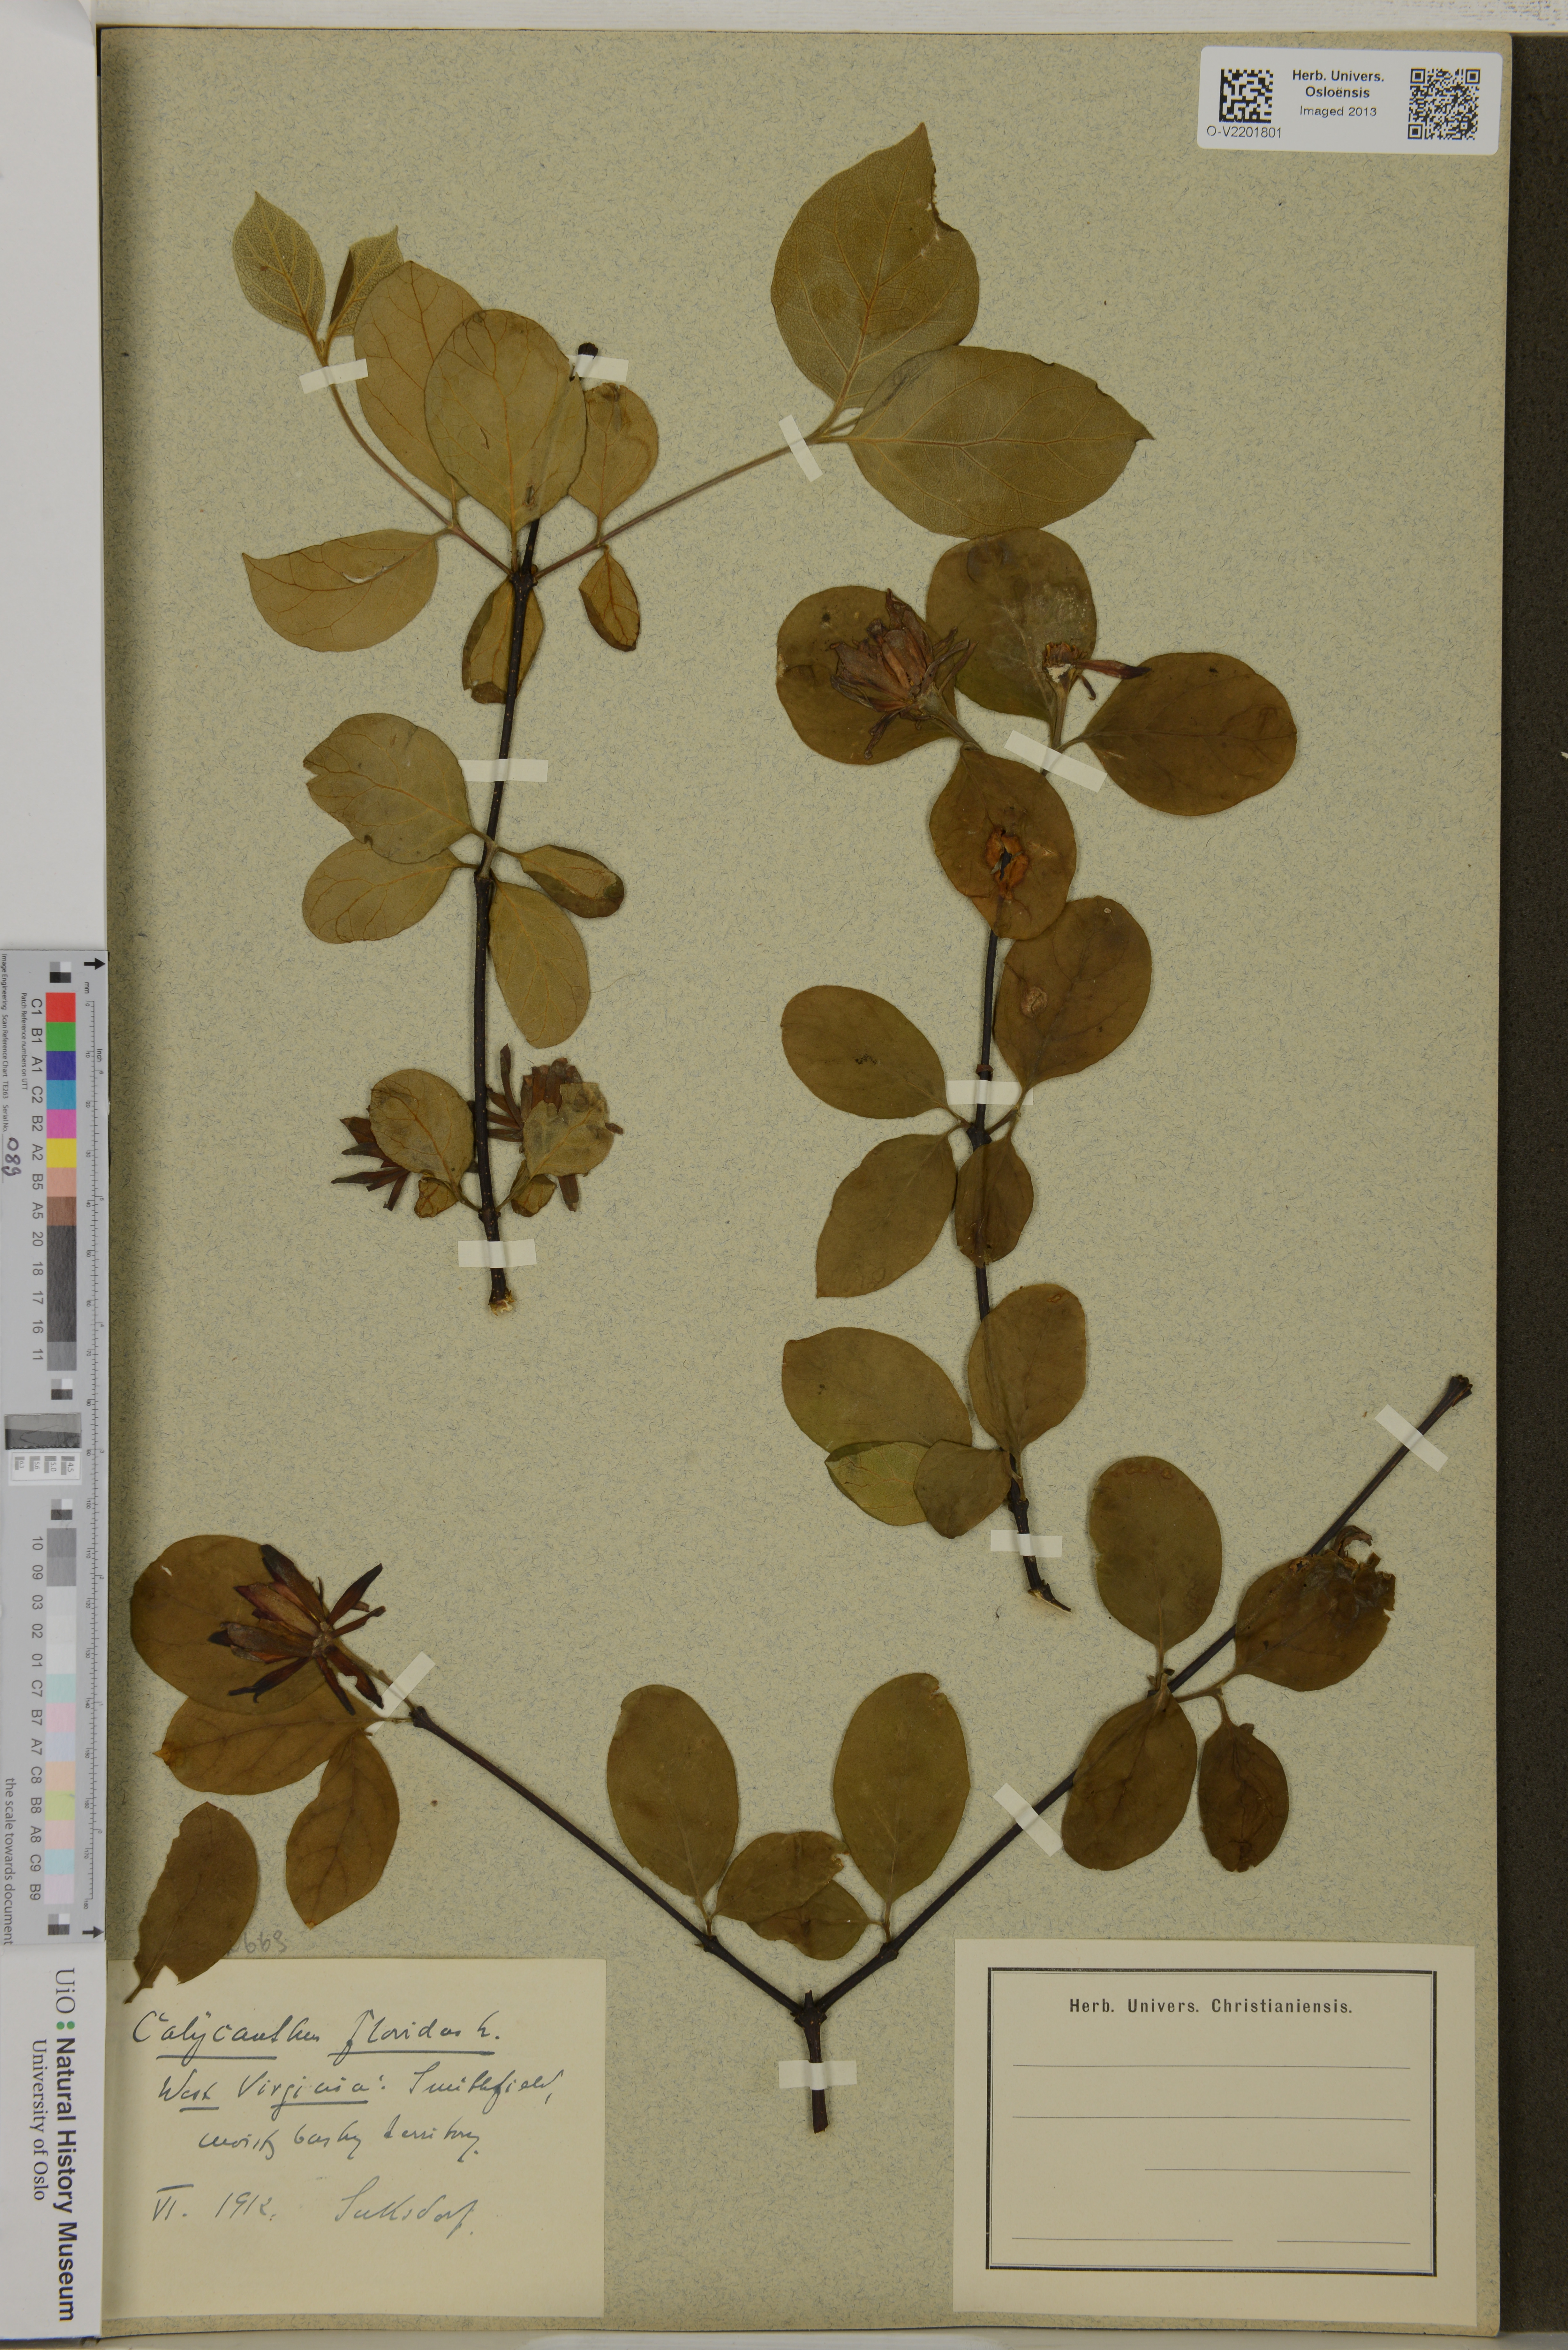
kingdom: Plantae
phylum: Tracheophyta
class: Magnoliopsida
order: Laurales
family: Calycanthaceae
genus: Calycanthus
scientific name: Calycanthus floridus
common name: Carolina-allspice
